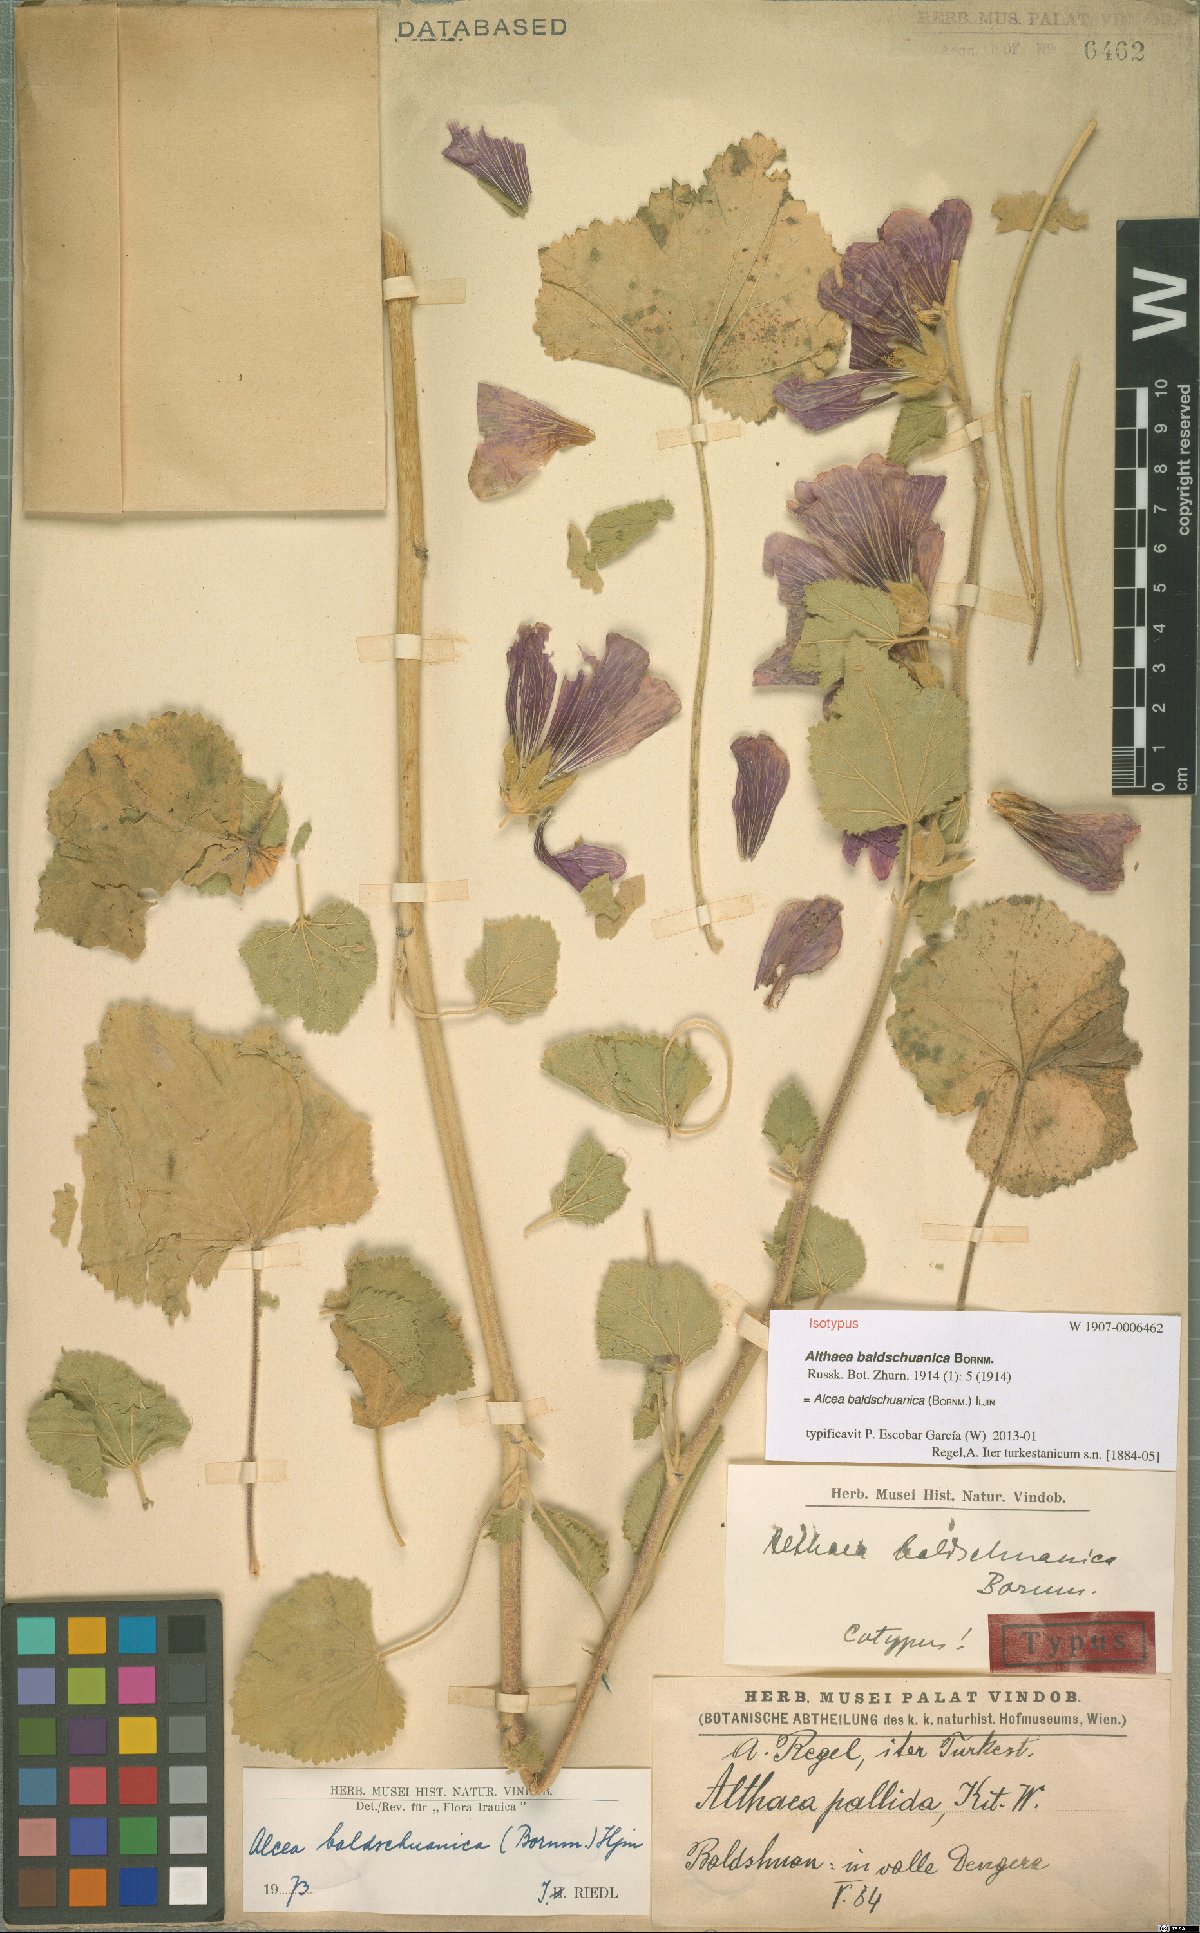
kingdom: Plantae
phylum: Tracheophyta
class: Magnoliopsida
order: Malvales
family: Malvaceae
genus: Alcea
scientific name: Alcea baldshuanica
